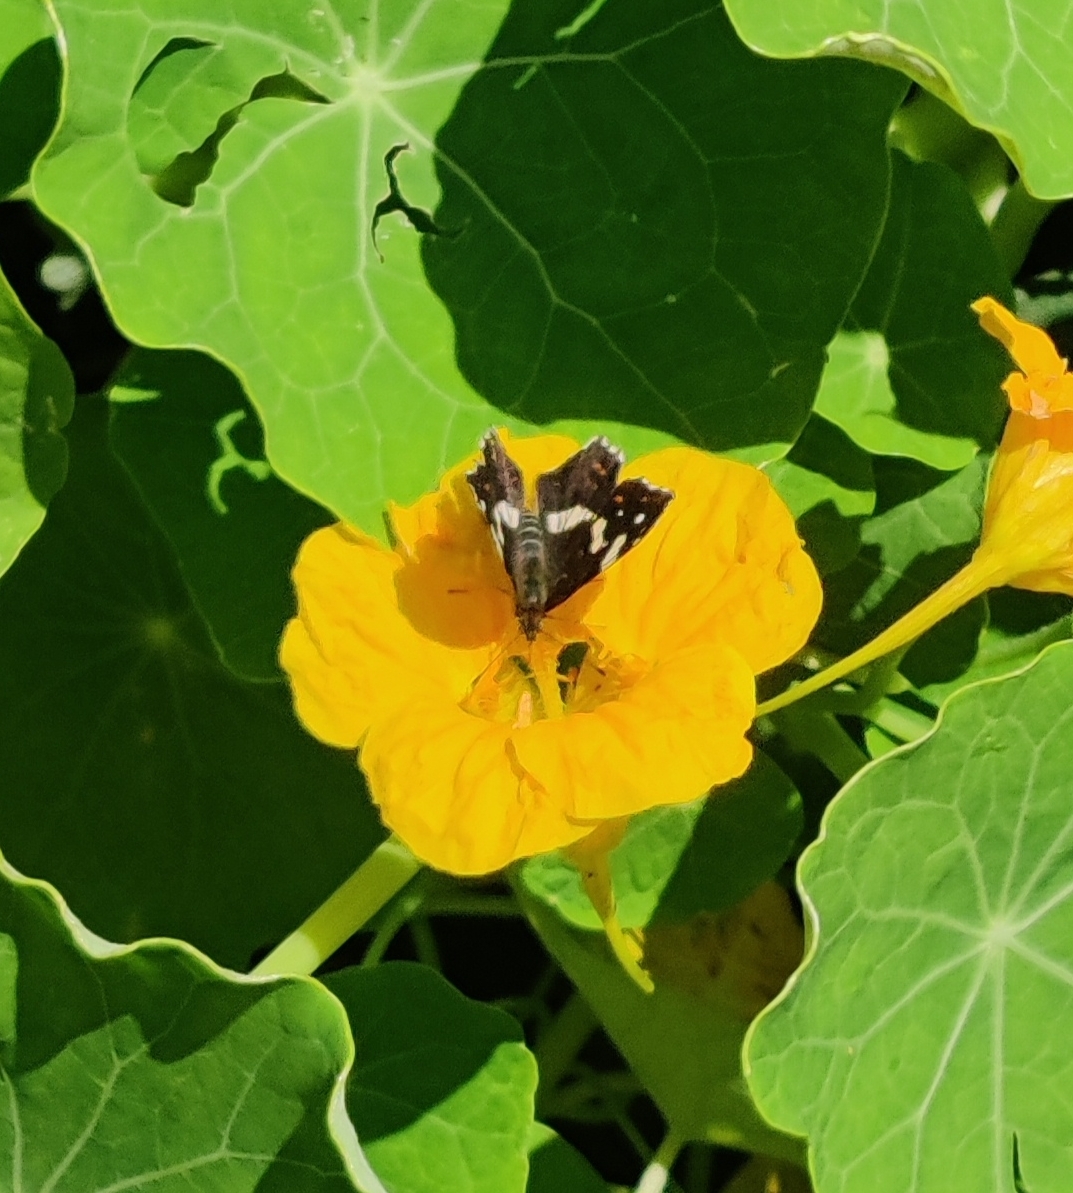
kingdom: Animalia
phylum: Arthropoda
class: Insecta
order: Lepidoptera
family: Nymphalidae
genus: Araschnia
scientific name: Araschnia levana
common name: Nældesommerfugl
